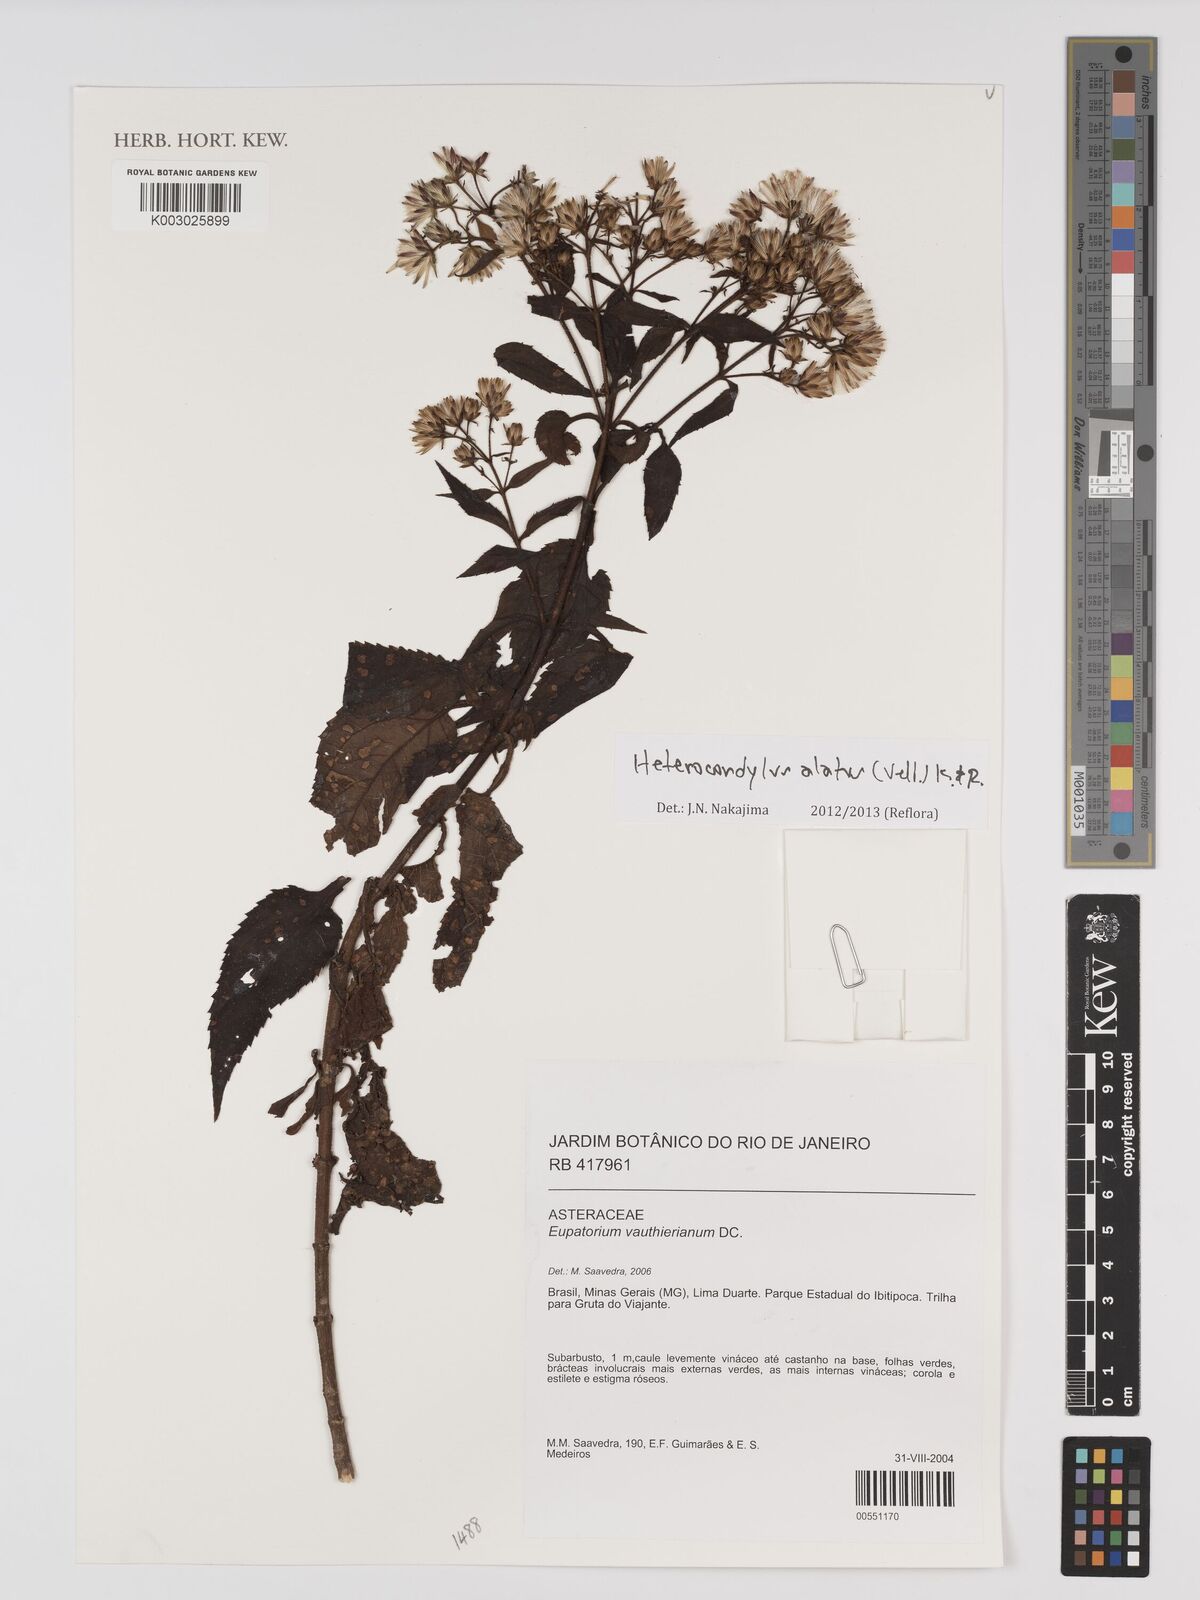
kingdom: Plantae
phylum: Tracheophyta
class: Magnoliopsida
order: Asterales
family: Asteraceae
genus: Heterocondylus
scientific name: Heterocondylus alatus
